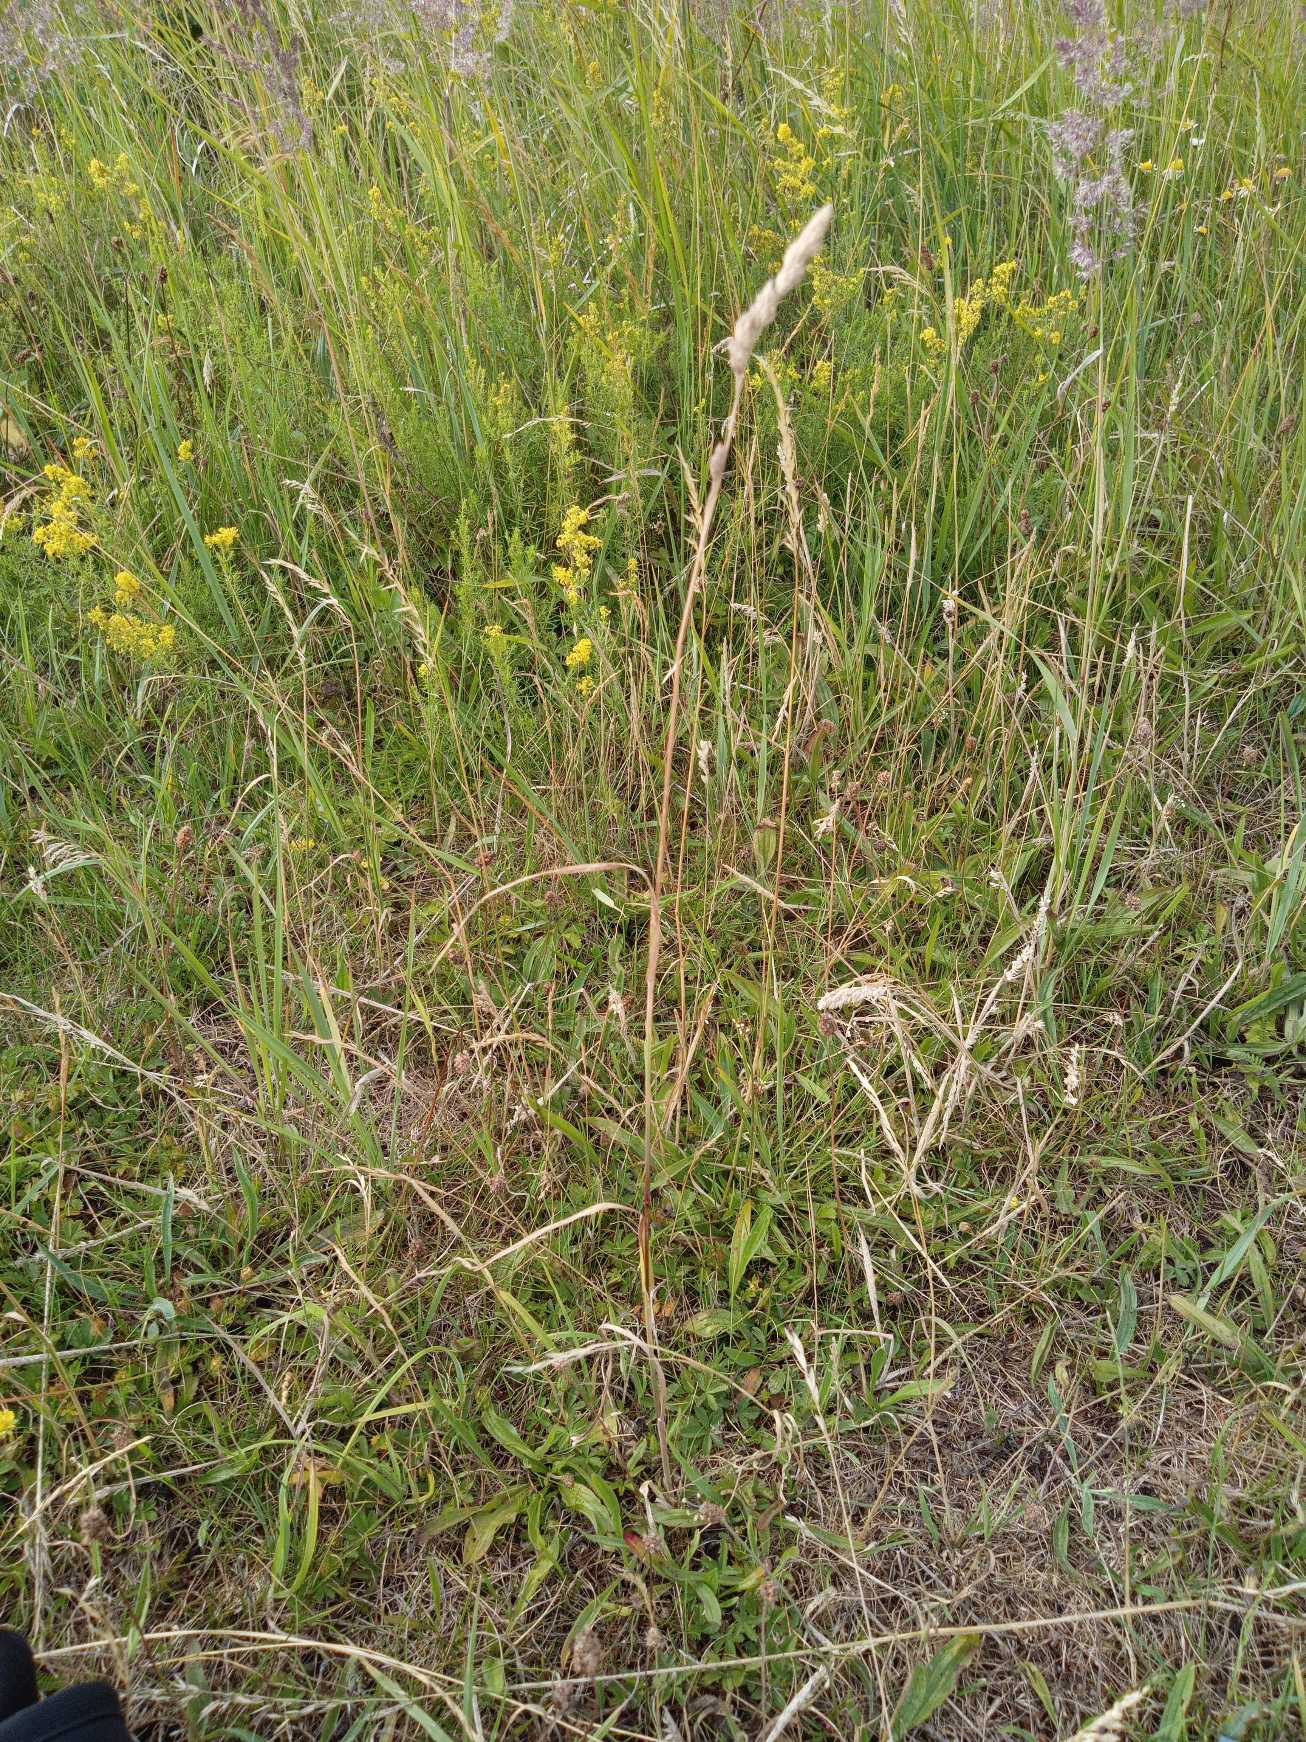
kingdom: Plantae
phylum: Tracheophyta
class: Liliopsida
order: Poales
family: Poaceae
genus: Dactylis
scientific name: Dactylis glomerata
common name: Almindelig hundegræs
